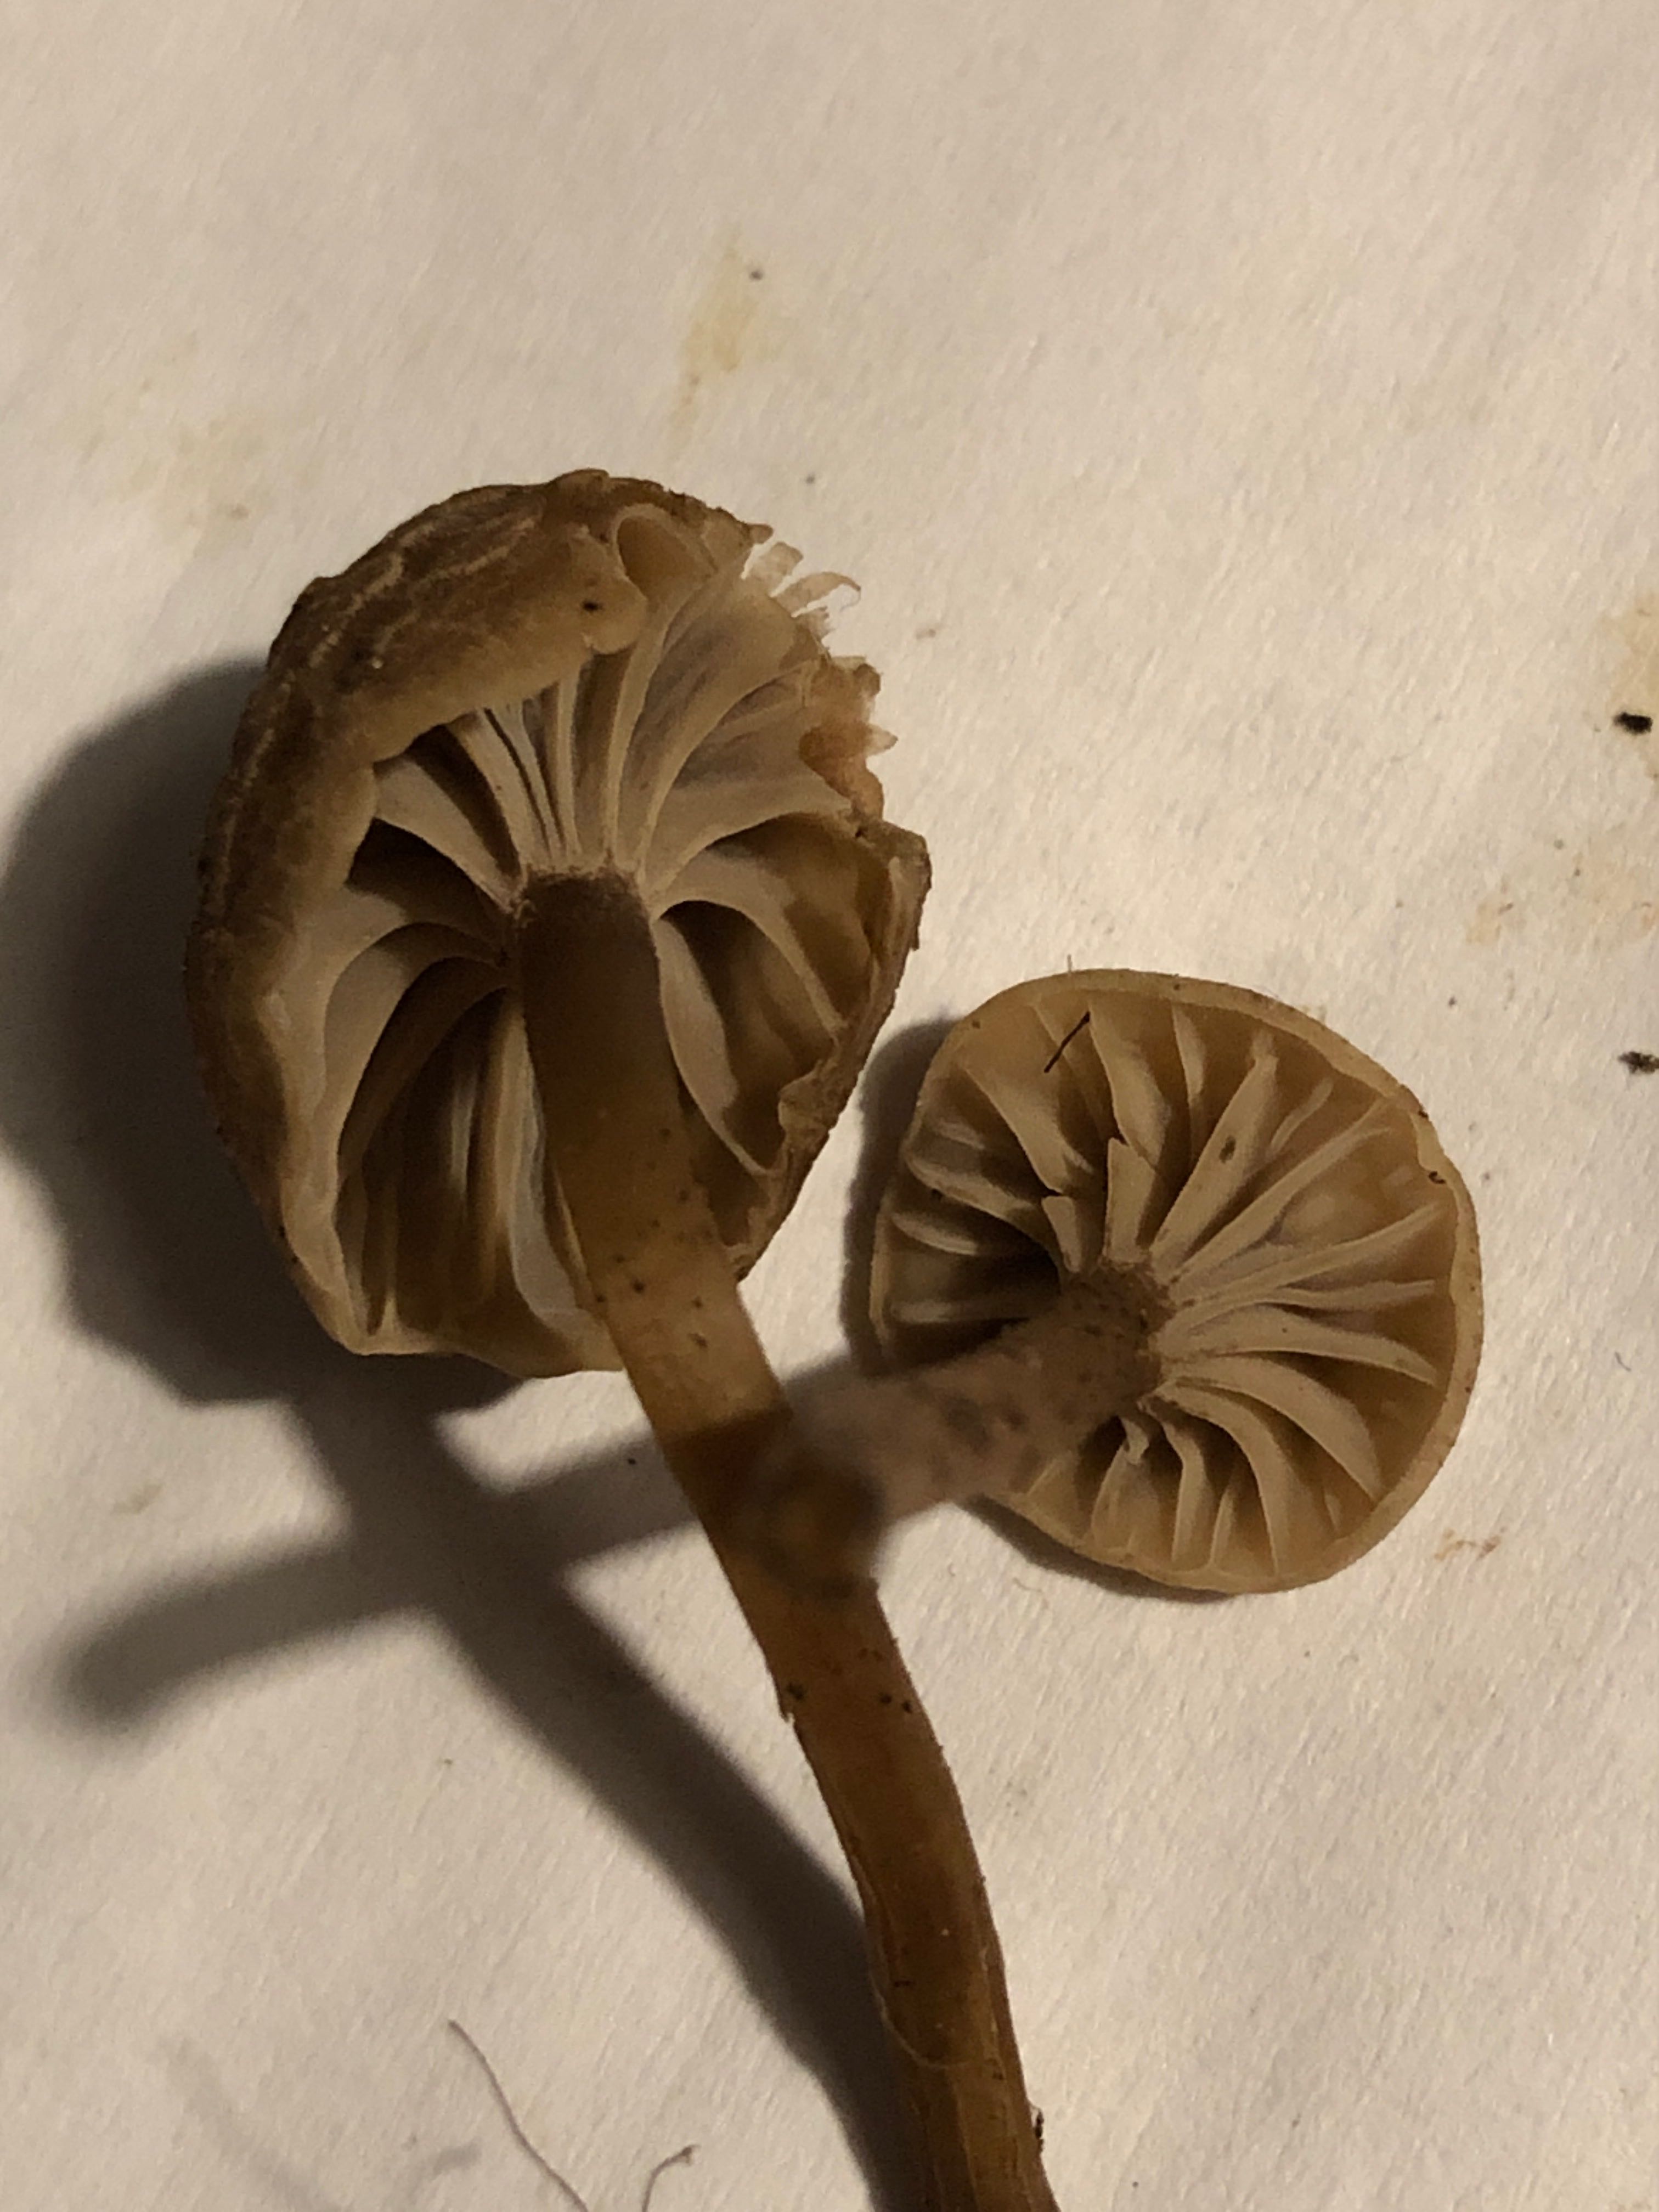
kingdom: Fungi
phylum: Basidiomycota
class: Agaricomycetes
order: Agaricales
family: Clavariaceae
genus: Hodophilus
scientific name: Hodophilus foetens
